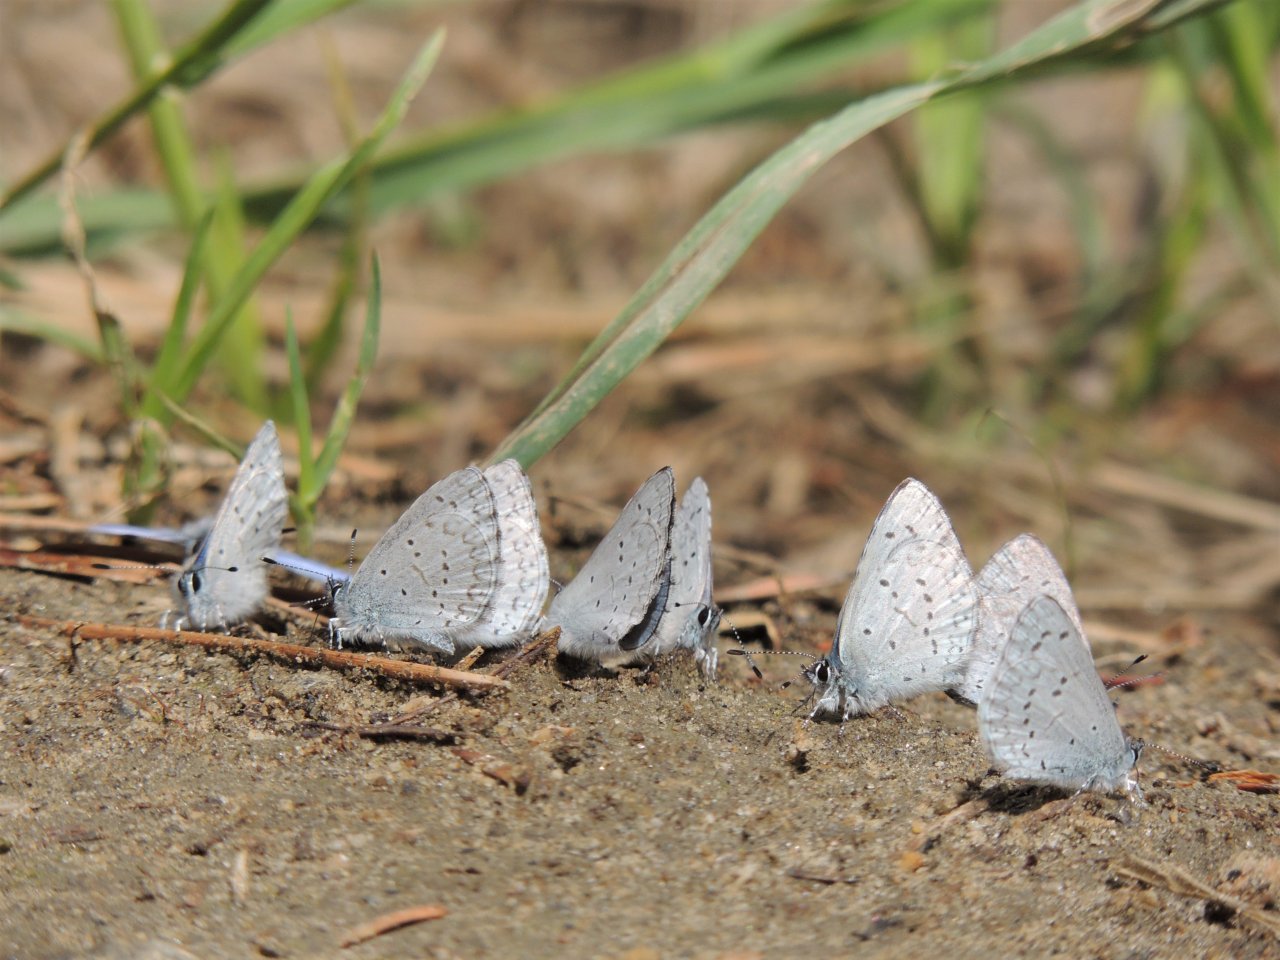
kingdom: Animalia
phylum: Arthropoda
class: Insecta
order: Lepidoptera
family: Lycaenidae
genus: Celastrina
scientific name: Celastrina ladon
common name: Echo Azure
